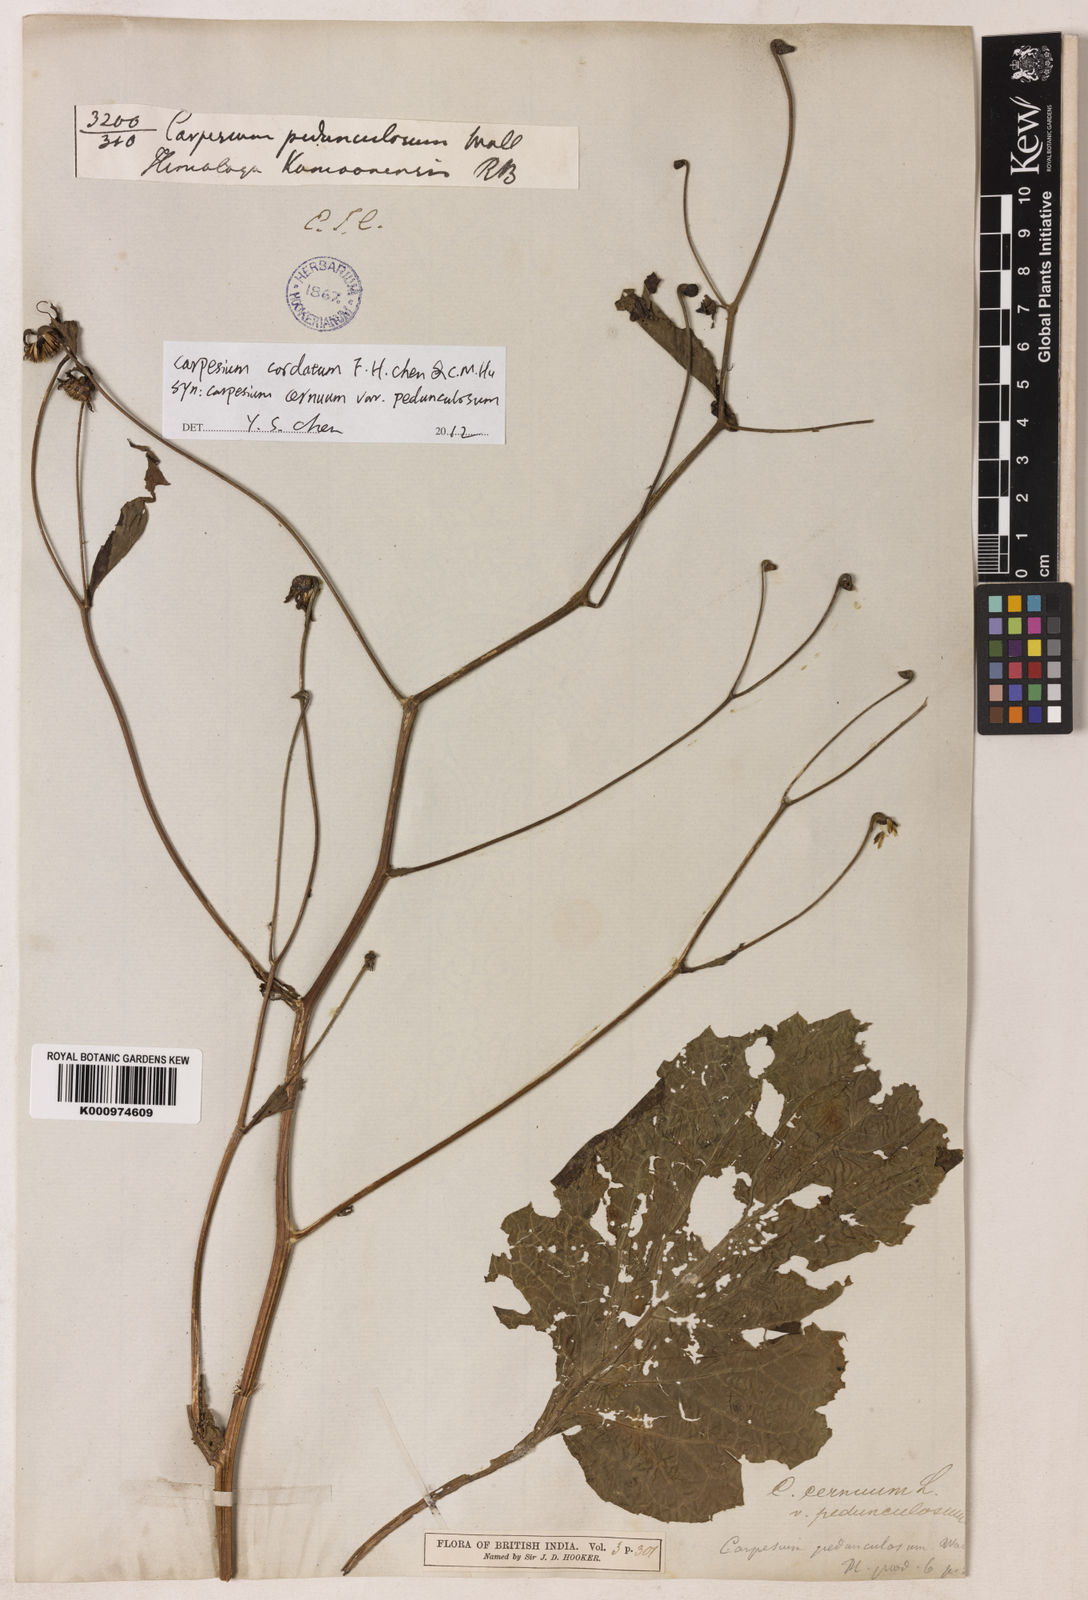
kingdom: Plantae
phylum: Tracheophyta
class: Magnoliopsida
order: Asterales
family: Asteraceae
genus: Carpesium
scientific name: Carpesium pedunculosum
